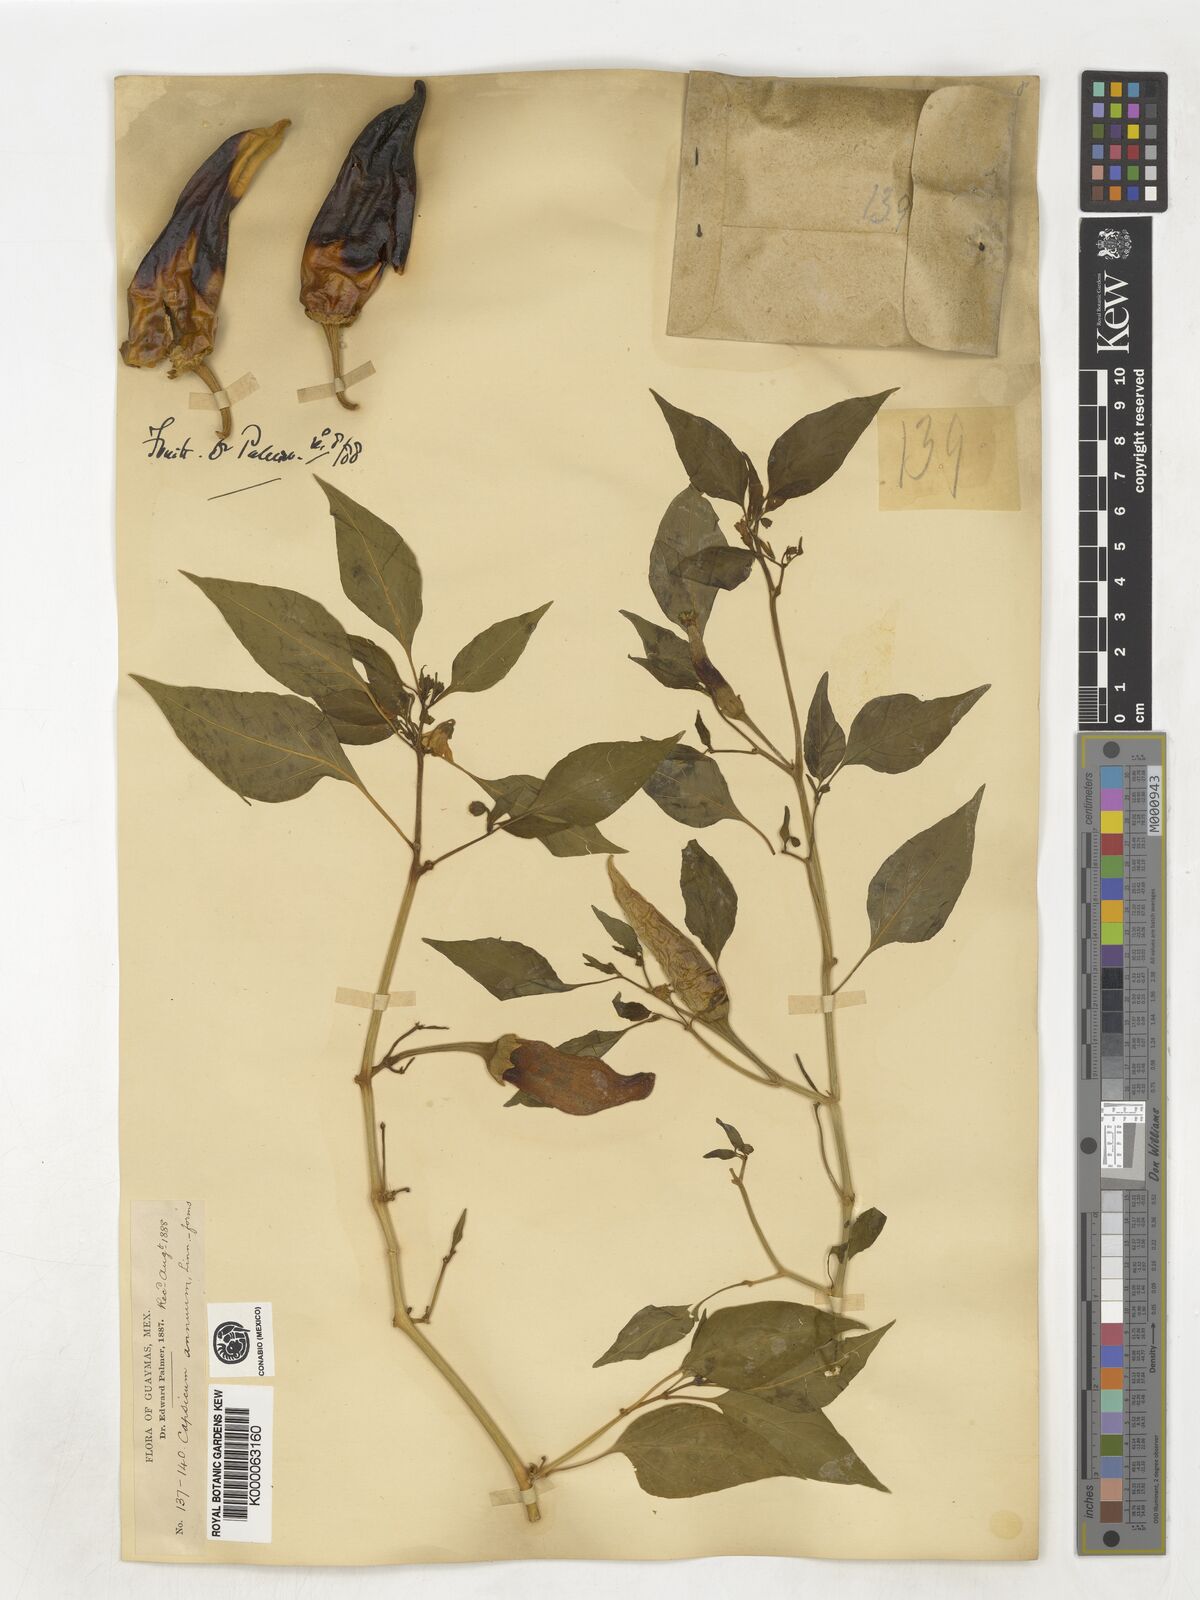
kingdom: Plantae
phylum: Tracheophyta
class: Magnoliopsida
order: Solanales
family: Solanaceae
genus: Capsicum
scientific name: Capsicum annuum
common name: Sweet pepper
